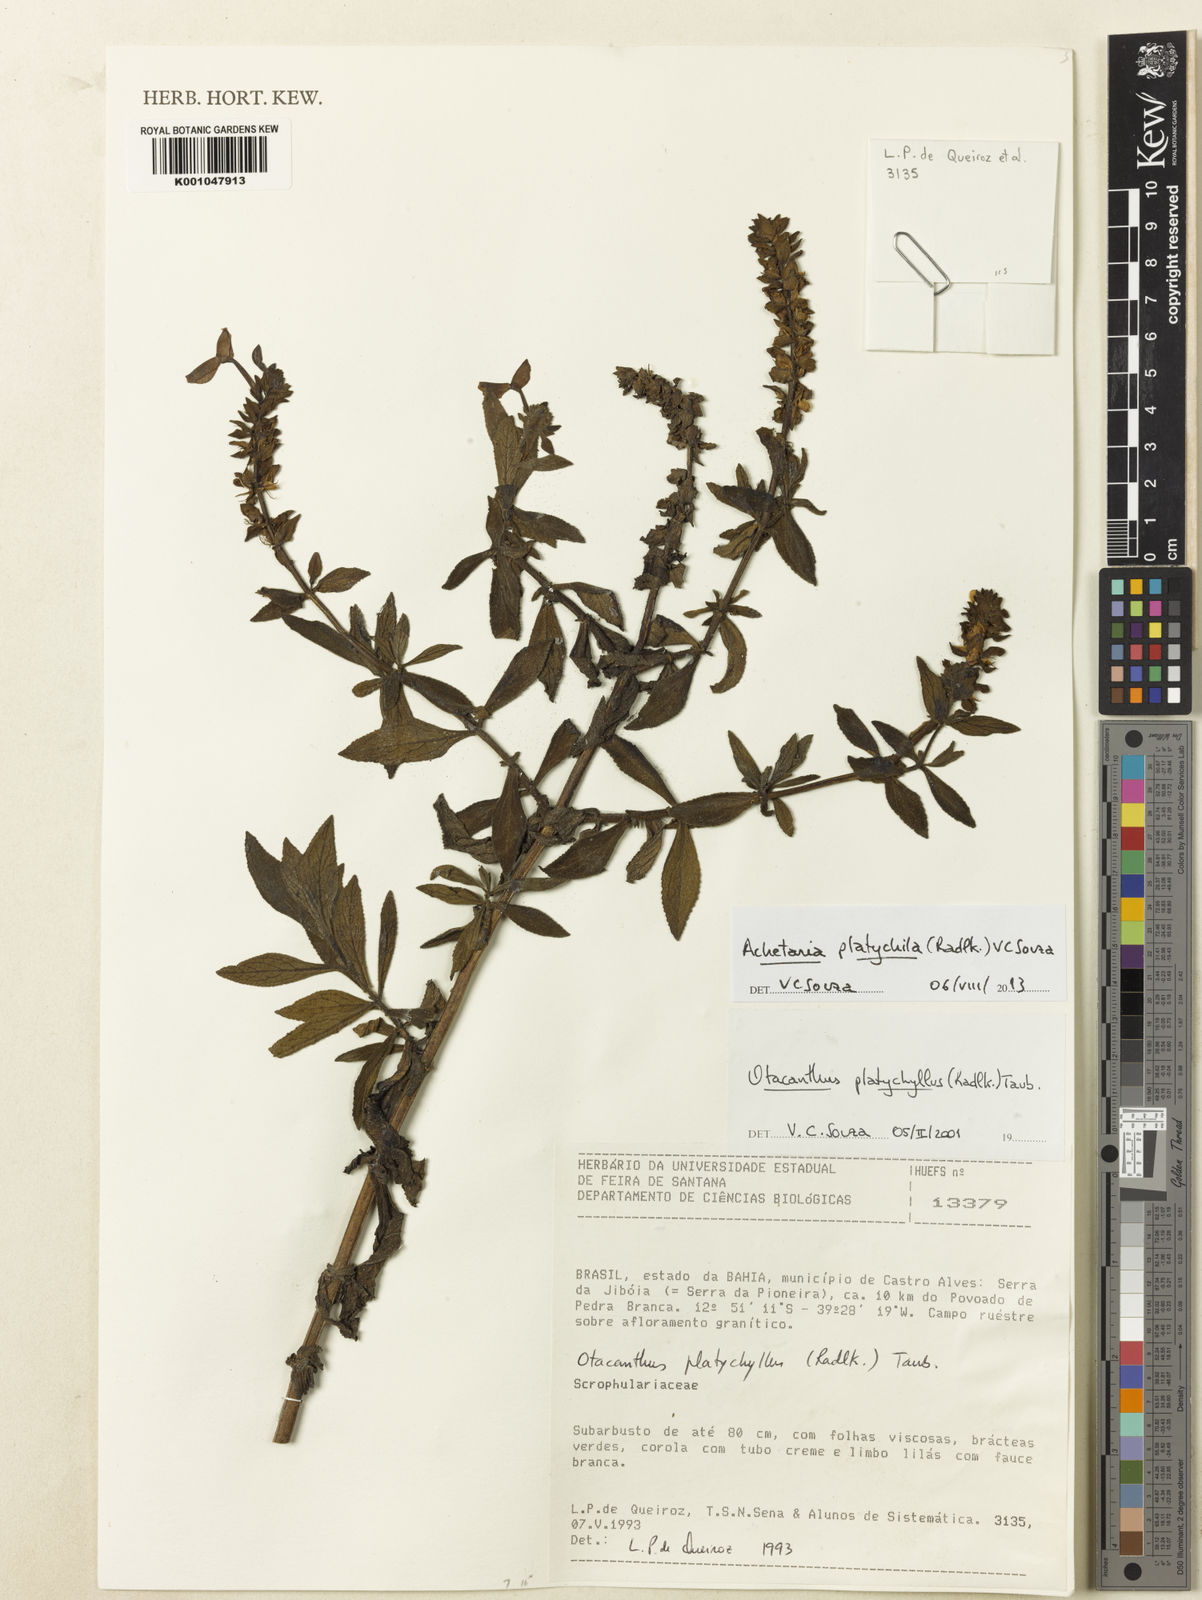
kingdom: Plantae
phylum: Tracheophyta
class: Magnoliopsida
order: Lamiales
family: Plantaginaceae
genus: Matourea
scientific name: Matourea platychila
